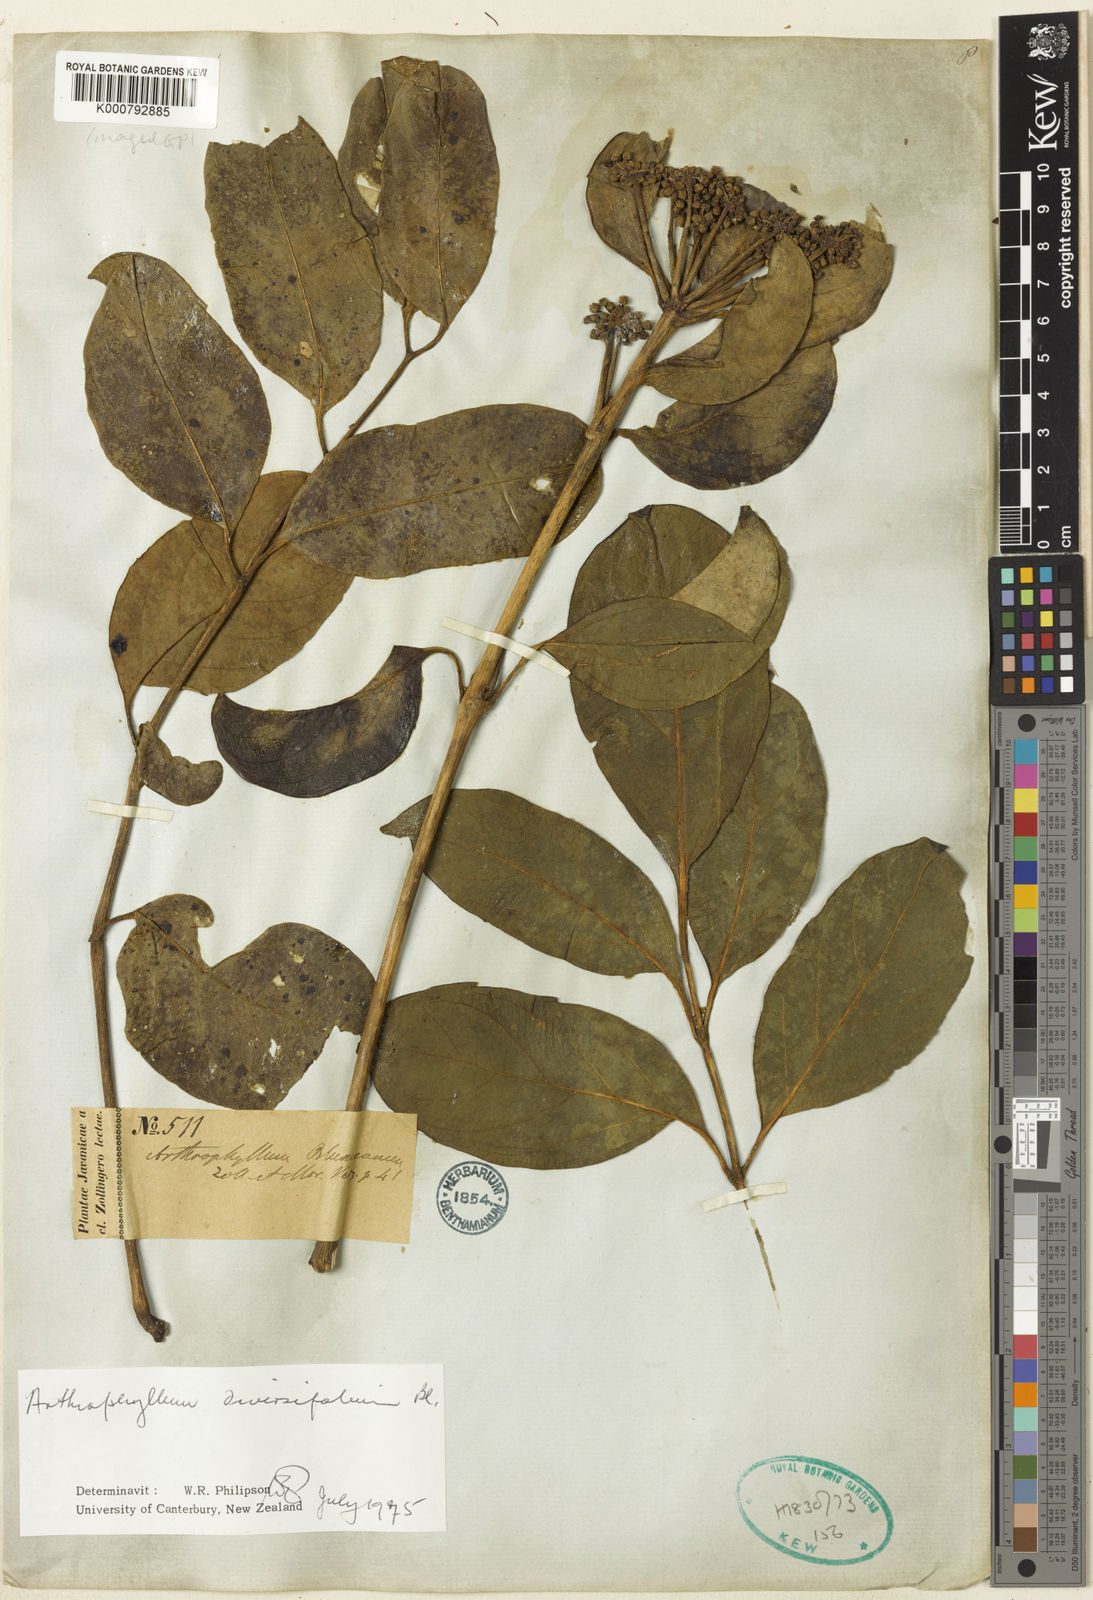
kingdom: Plantae
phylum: Tracheophyta
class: Magnoliopsida
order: Apiales
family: Araliaceae
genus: Polyscias
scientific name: Polyscias diversifolia
